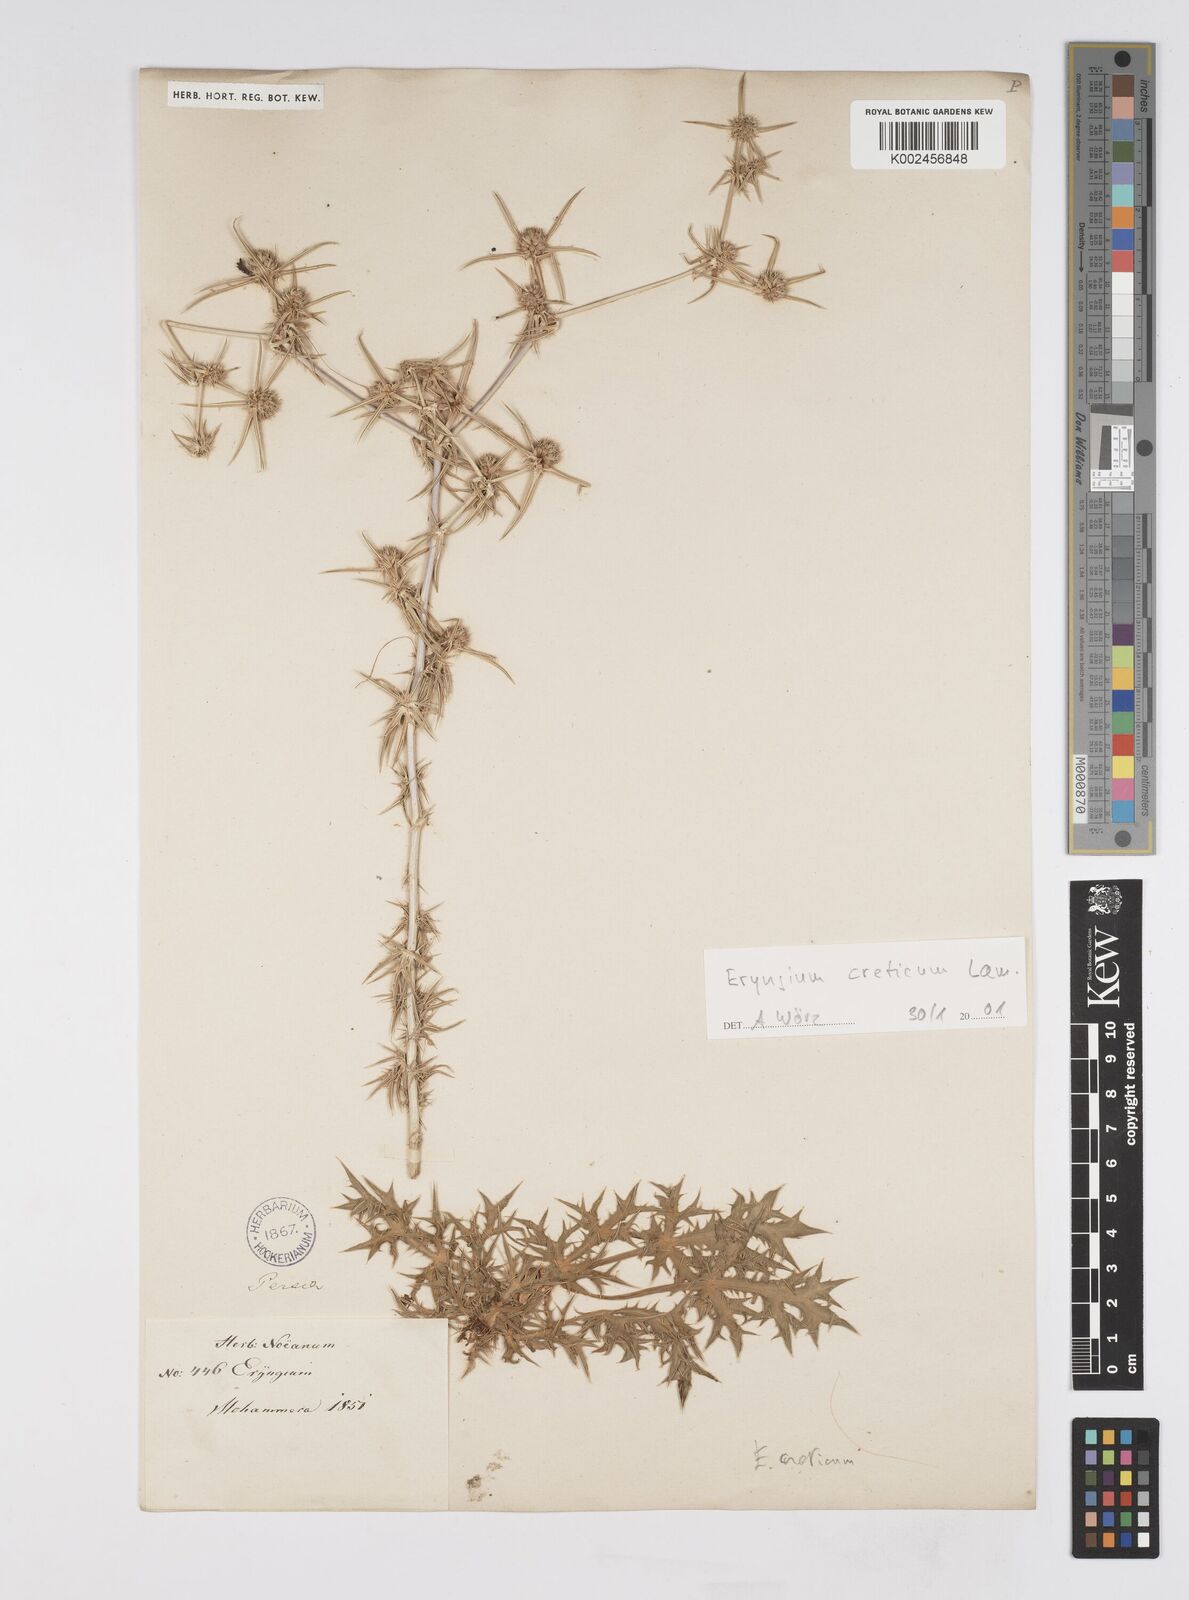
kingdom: Plantae
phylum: Tracheophyta
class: Magnoliopsida
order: Apiales
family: Apiaceae
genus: Eryngium
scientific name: Eryngium creticum
